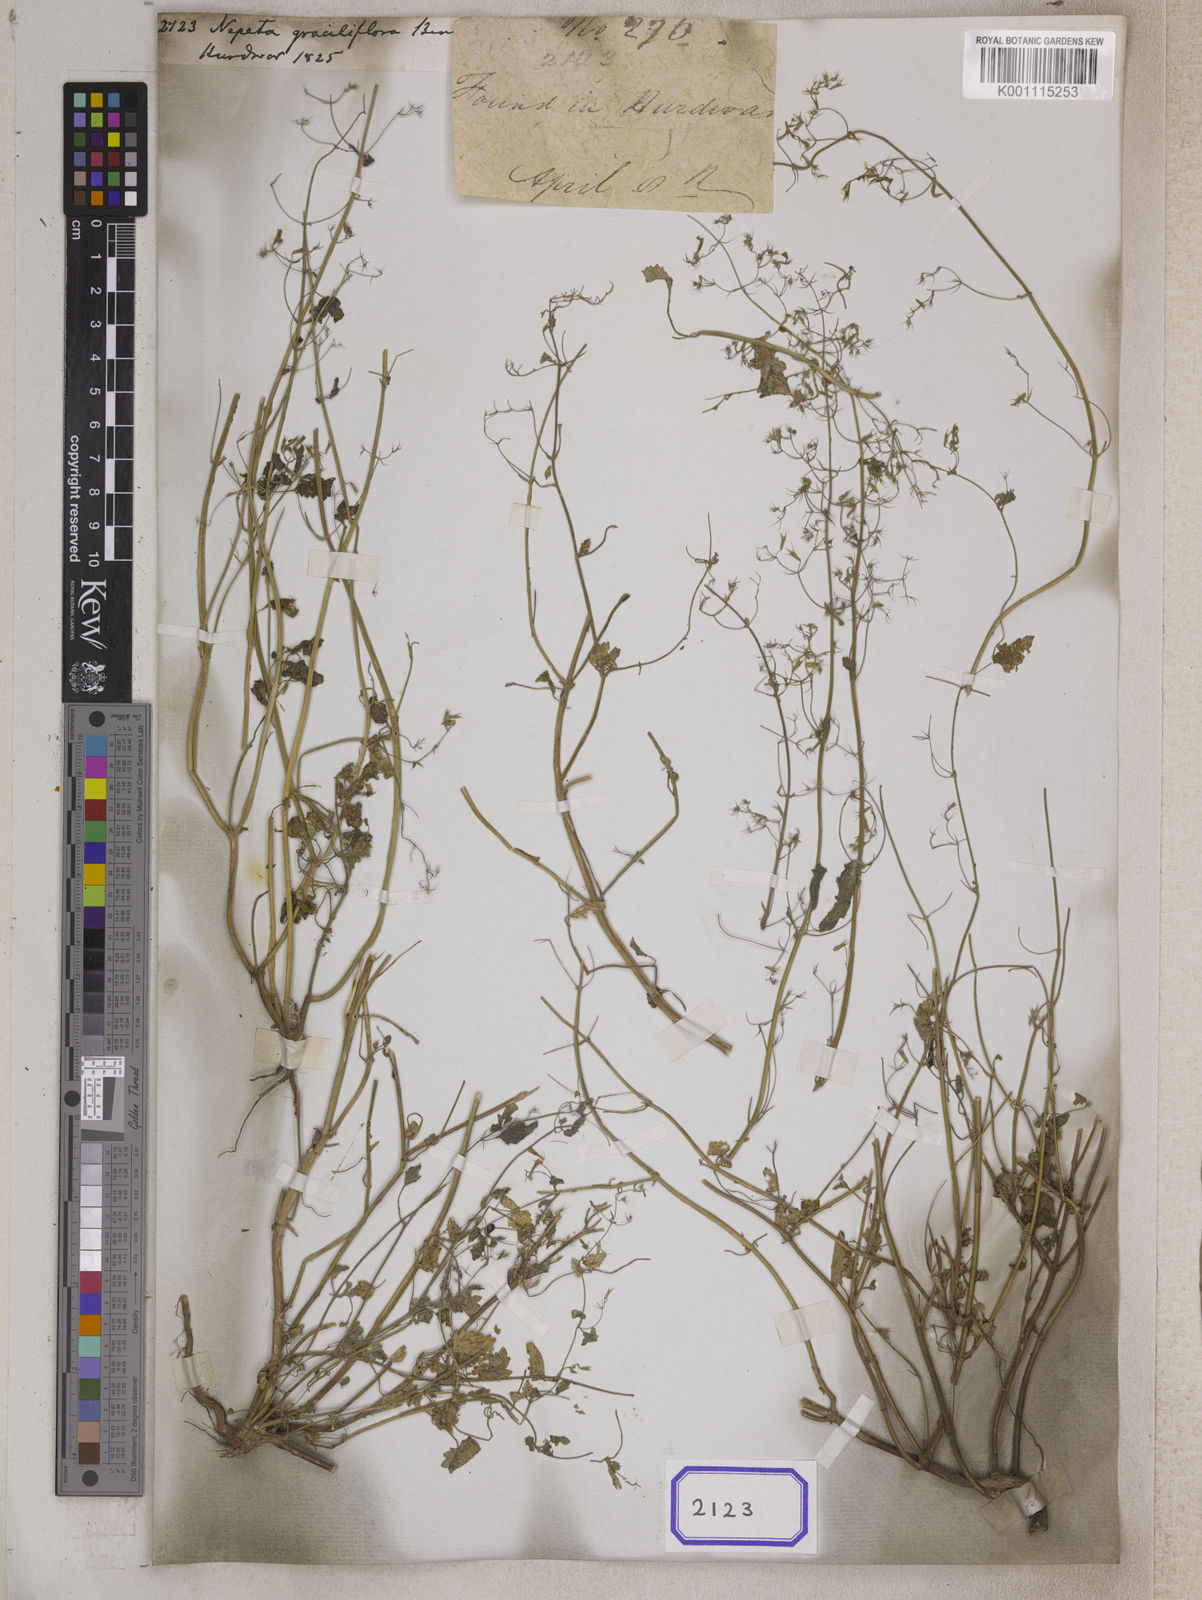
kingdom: Plantae
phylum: Tracheophyta
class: Magnoliopsida
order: Lamiales
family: Lamiaceae
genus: Nepeta
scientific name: Nepeta graciliflora
